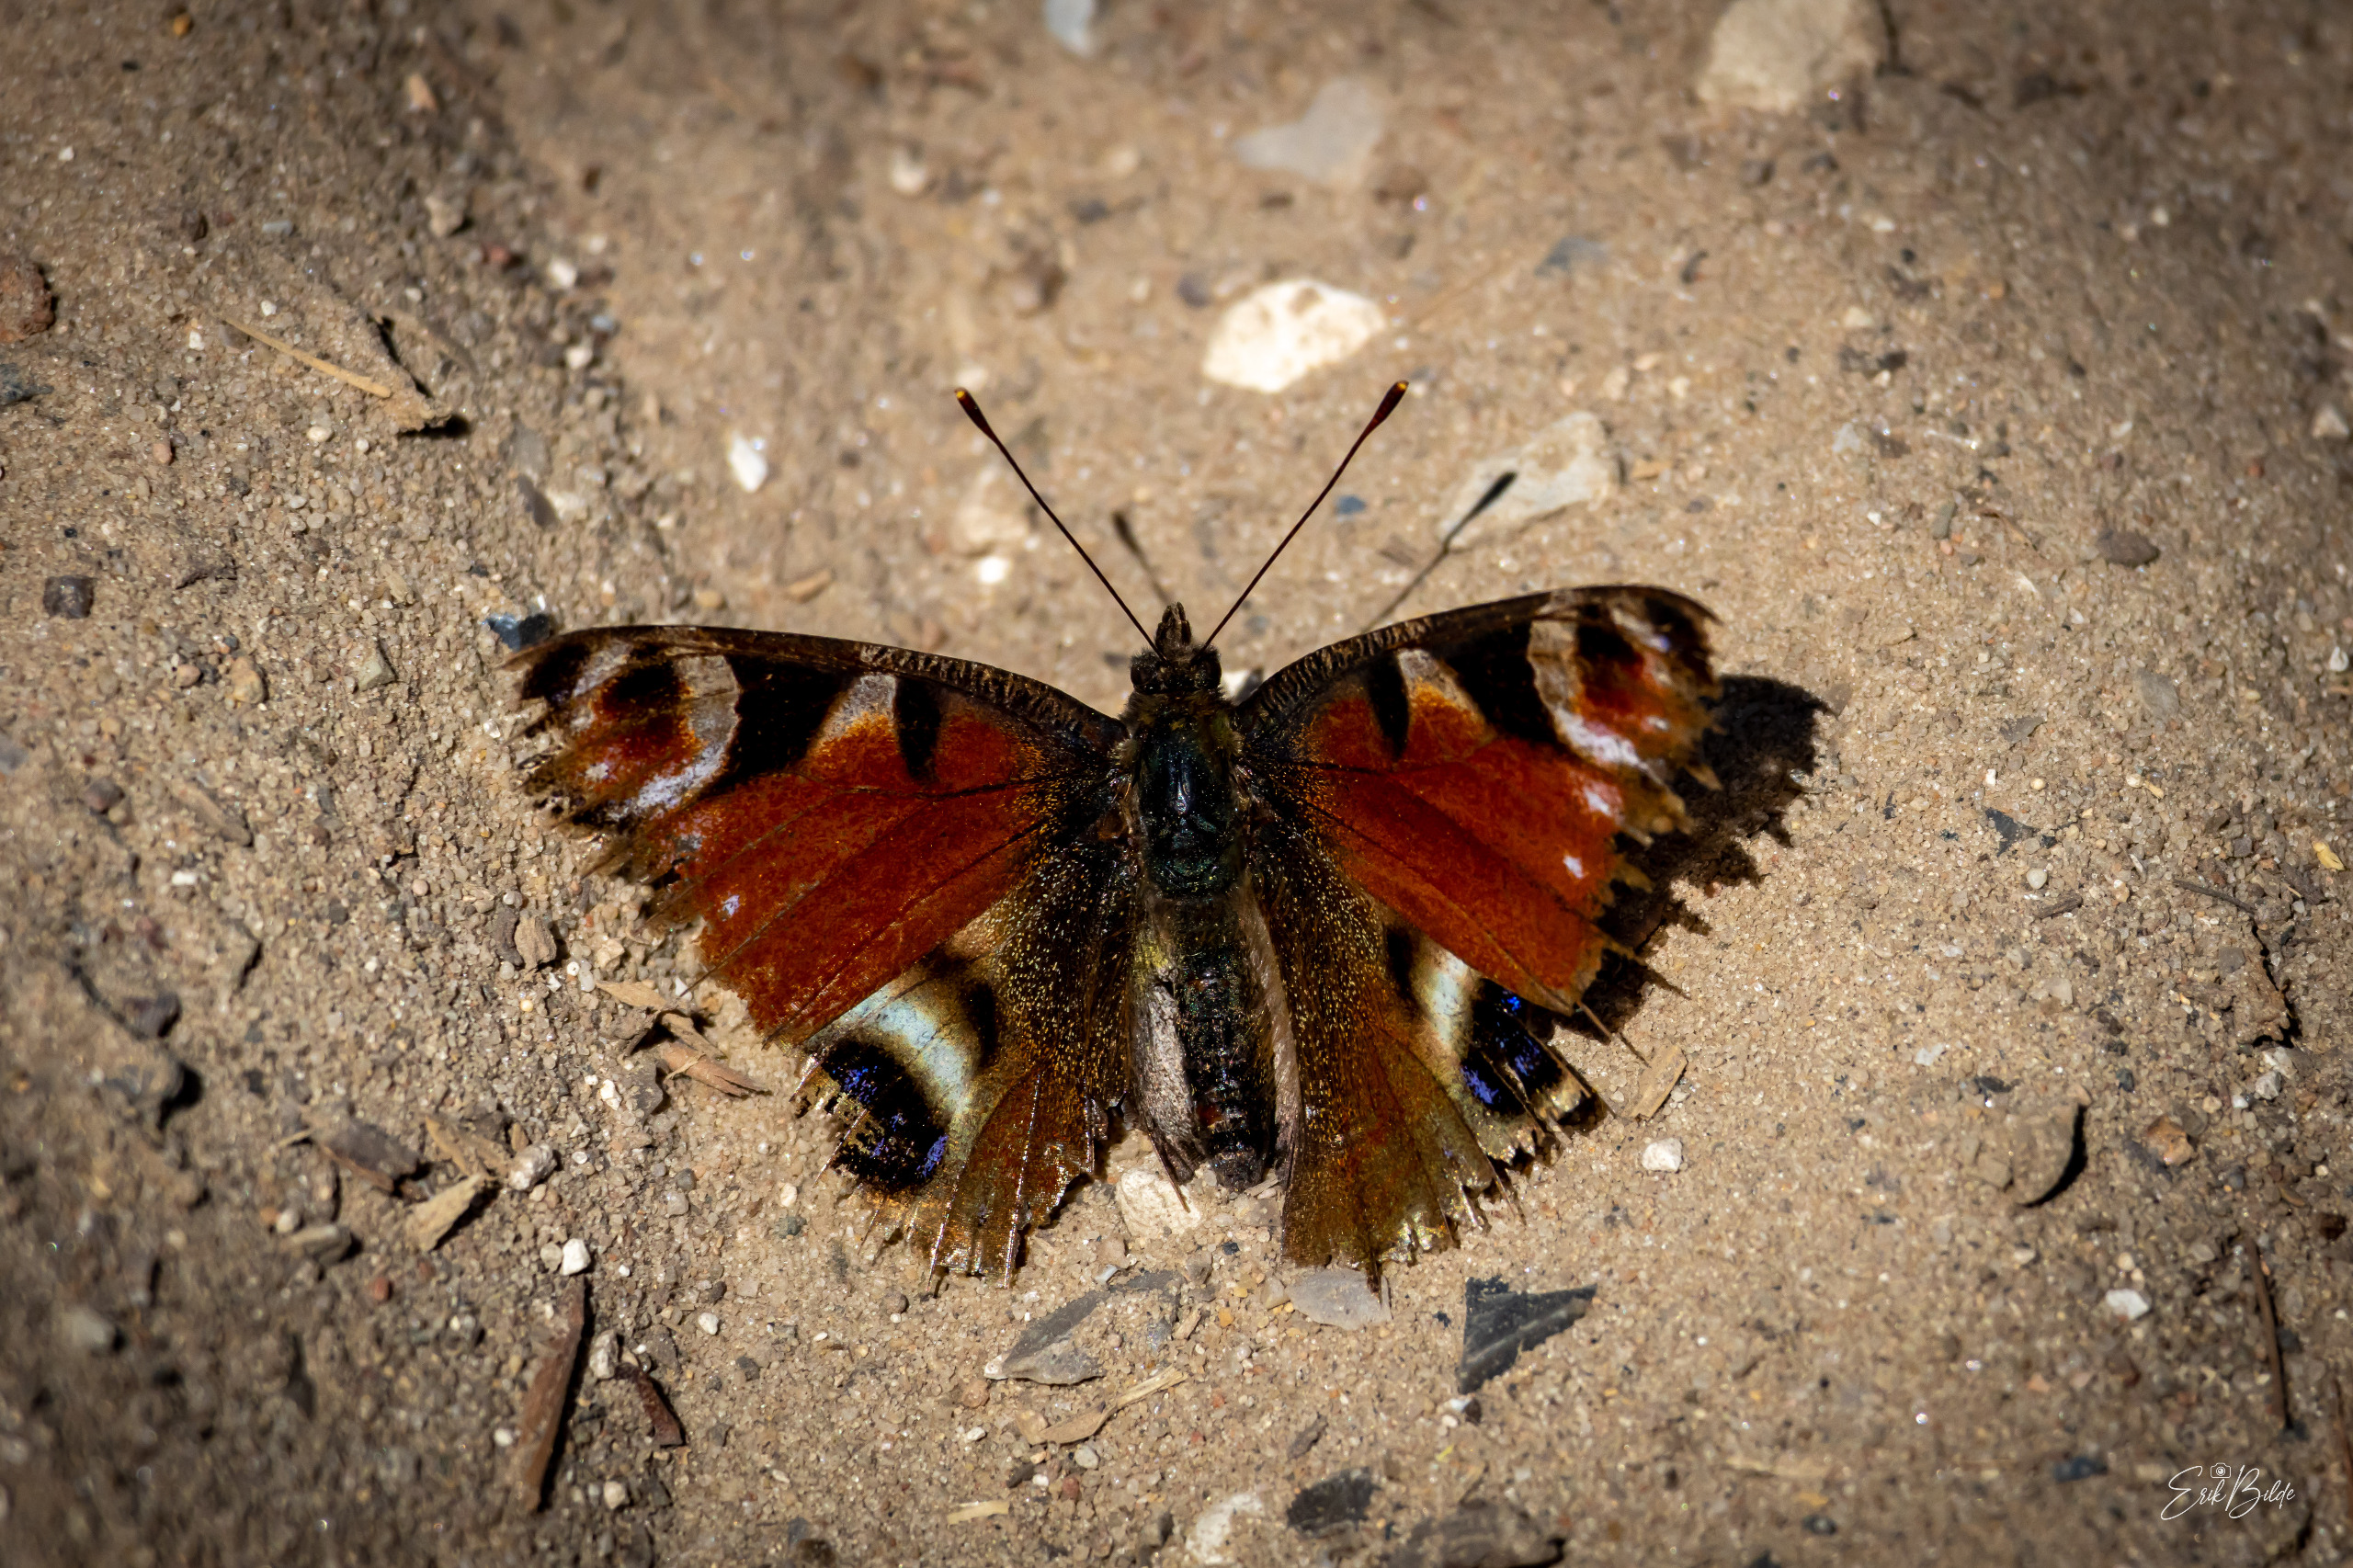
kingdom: Animalia
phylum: Arthropoda
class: Insecta
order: Lepidoptera
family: Nymphalidae
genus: Aglais
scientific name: Aglais io
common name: Dagpåfugleøje
